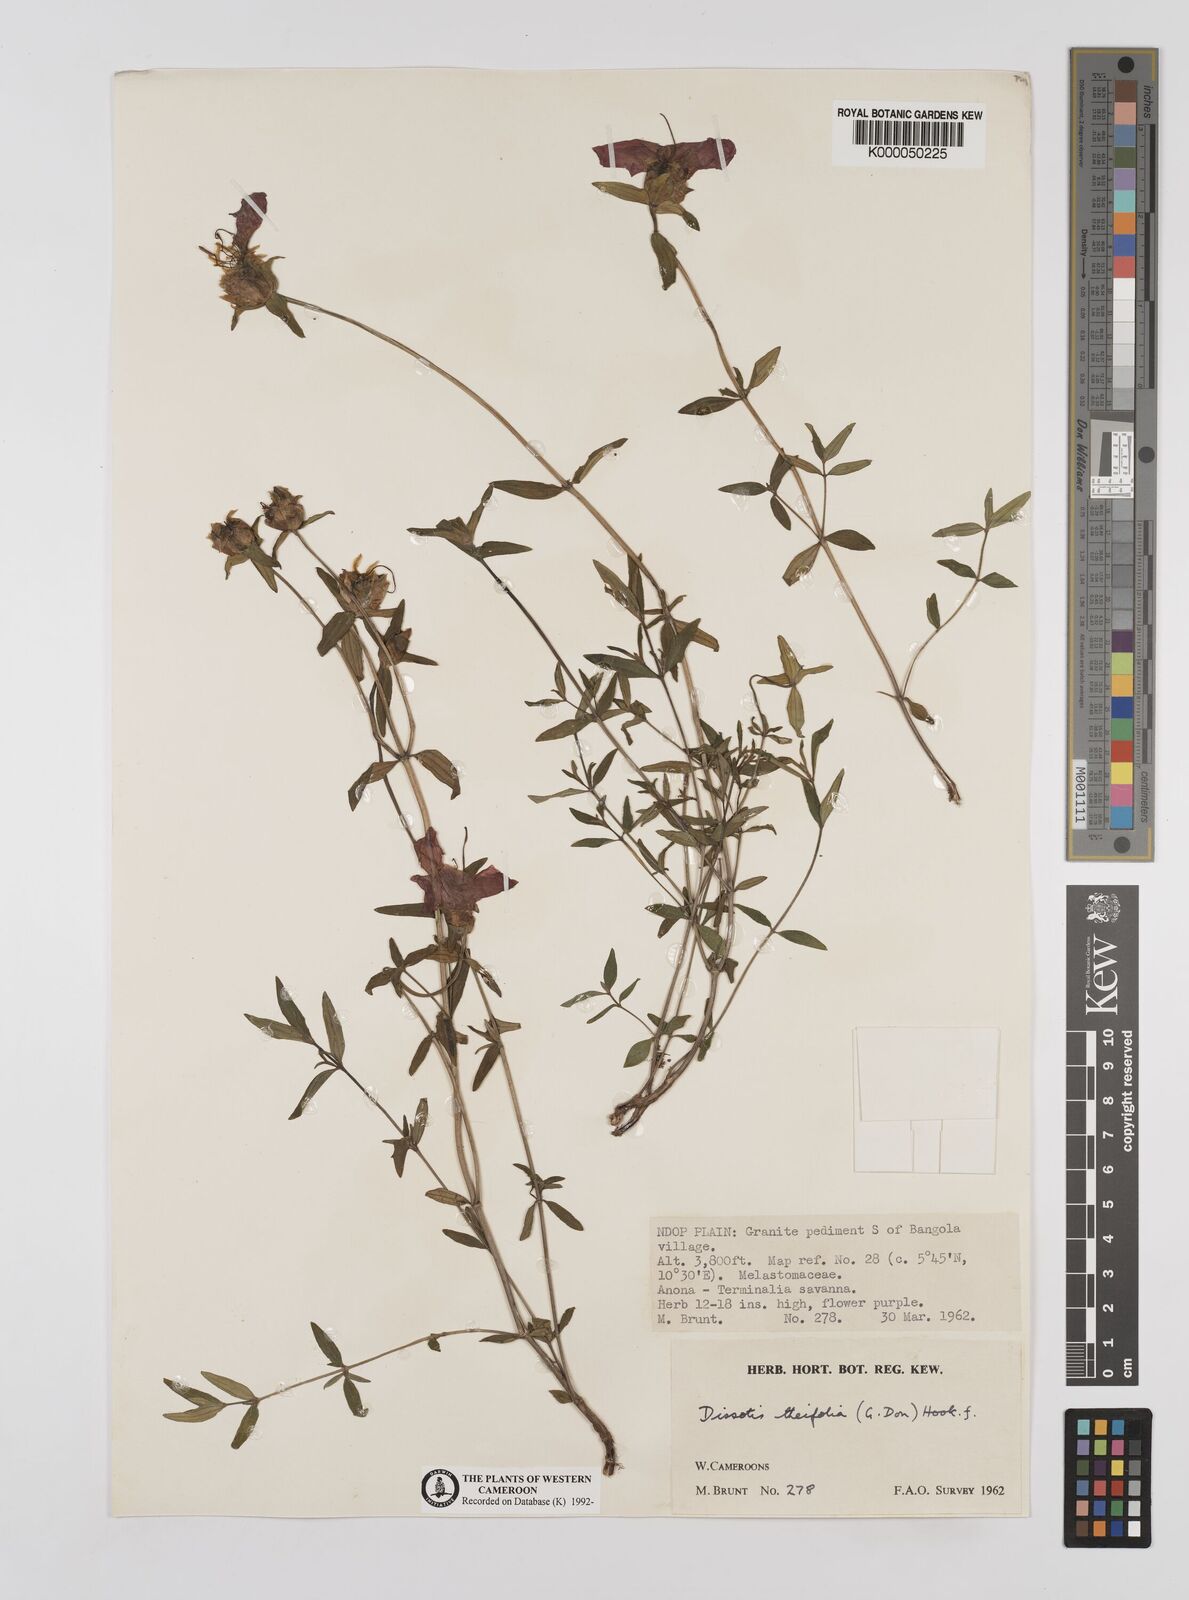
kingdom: Plantae
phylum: Tracheophyta
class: Magnoliopsida
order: Myrtales
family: Melastomataceae
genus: Melastomastrum
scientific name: Melastomastrum theifolium
